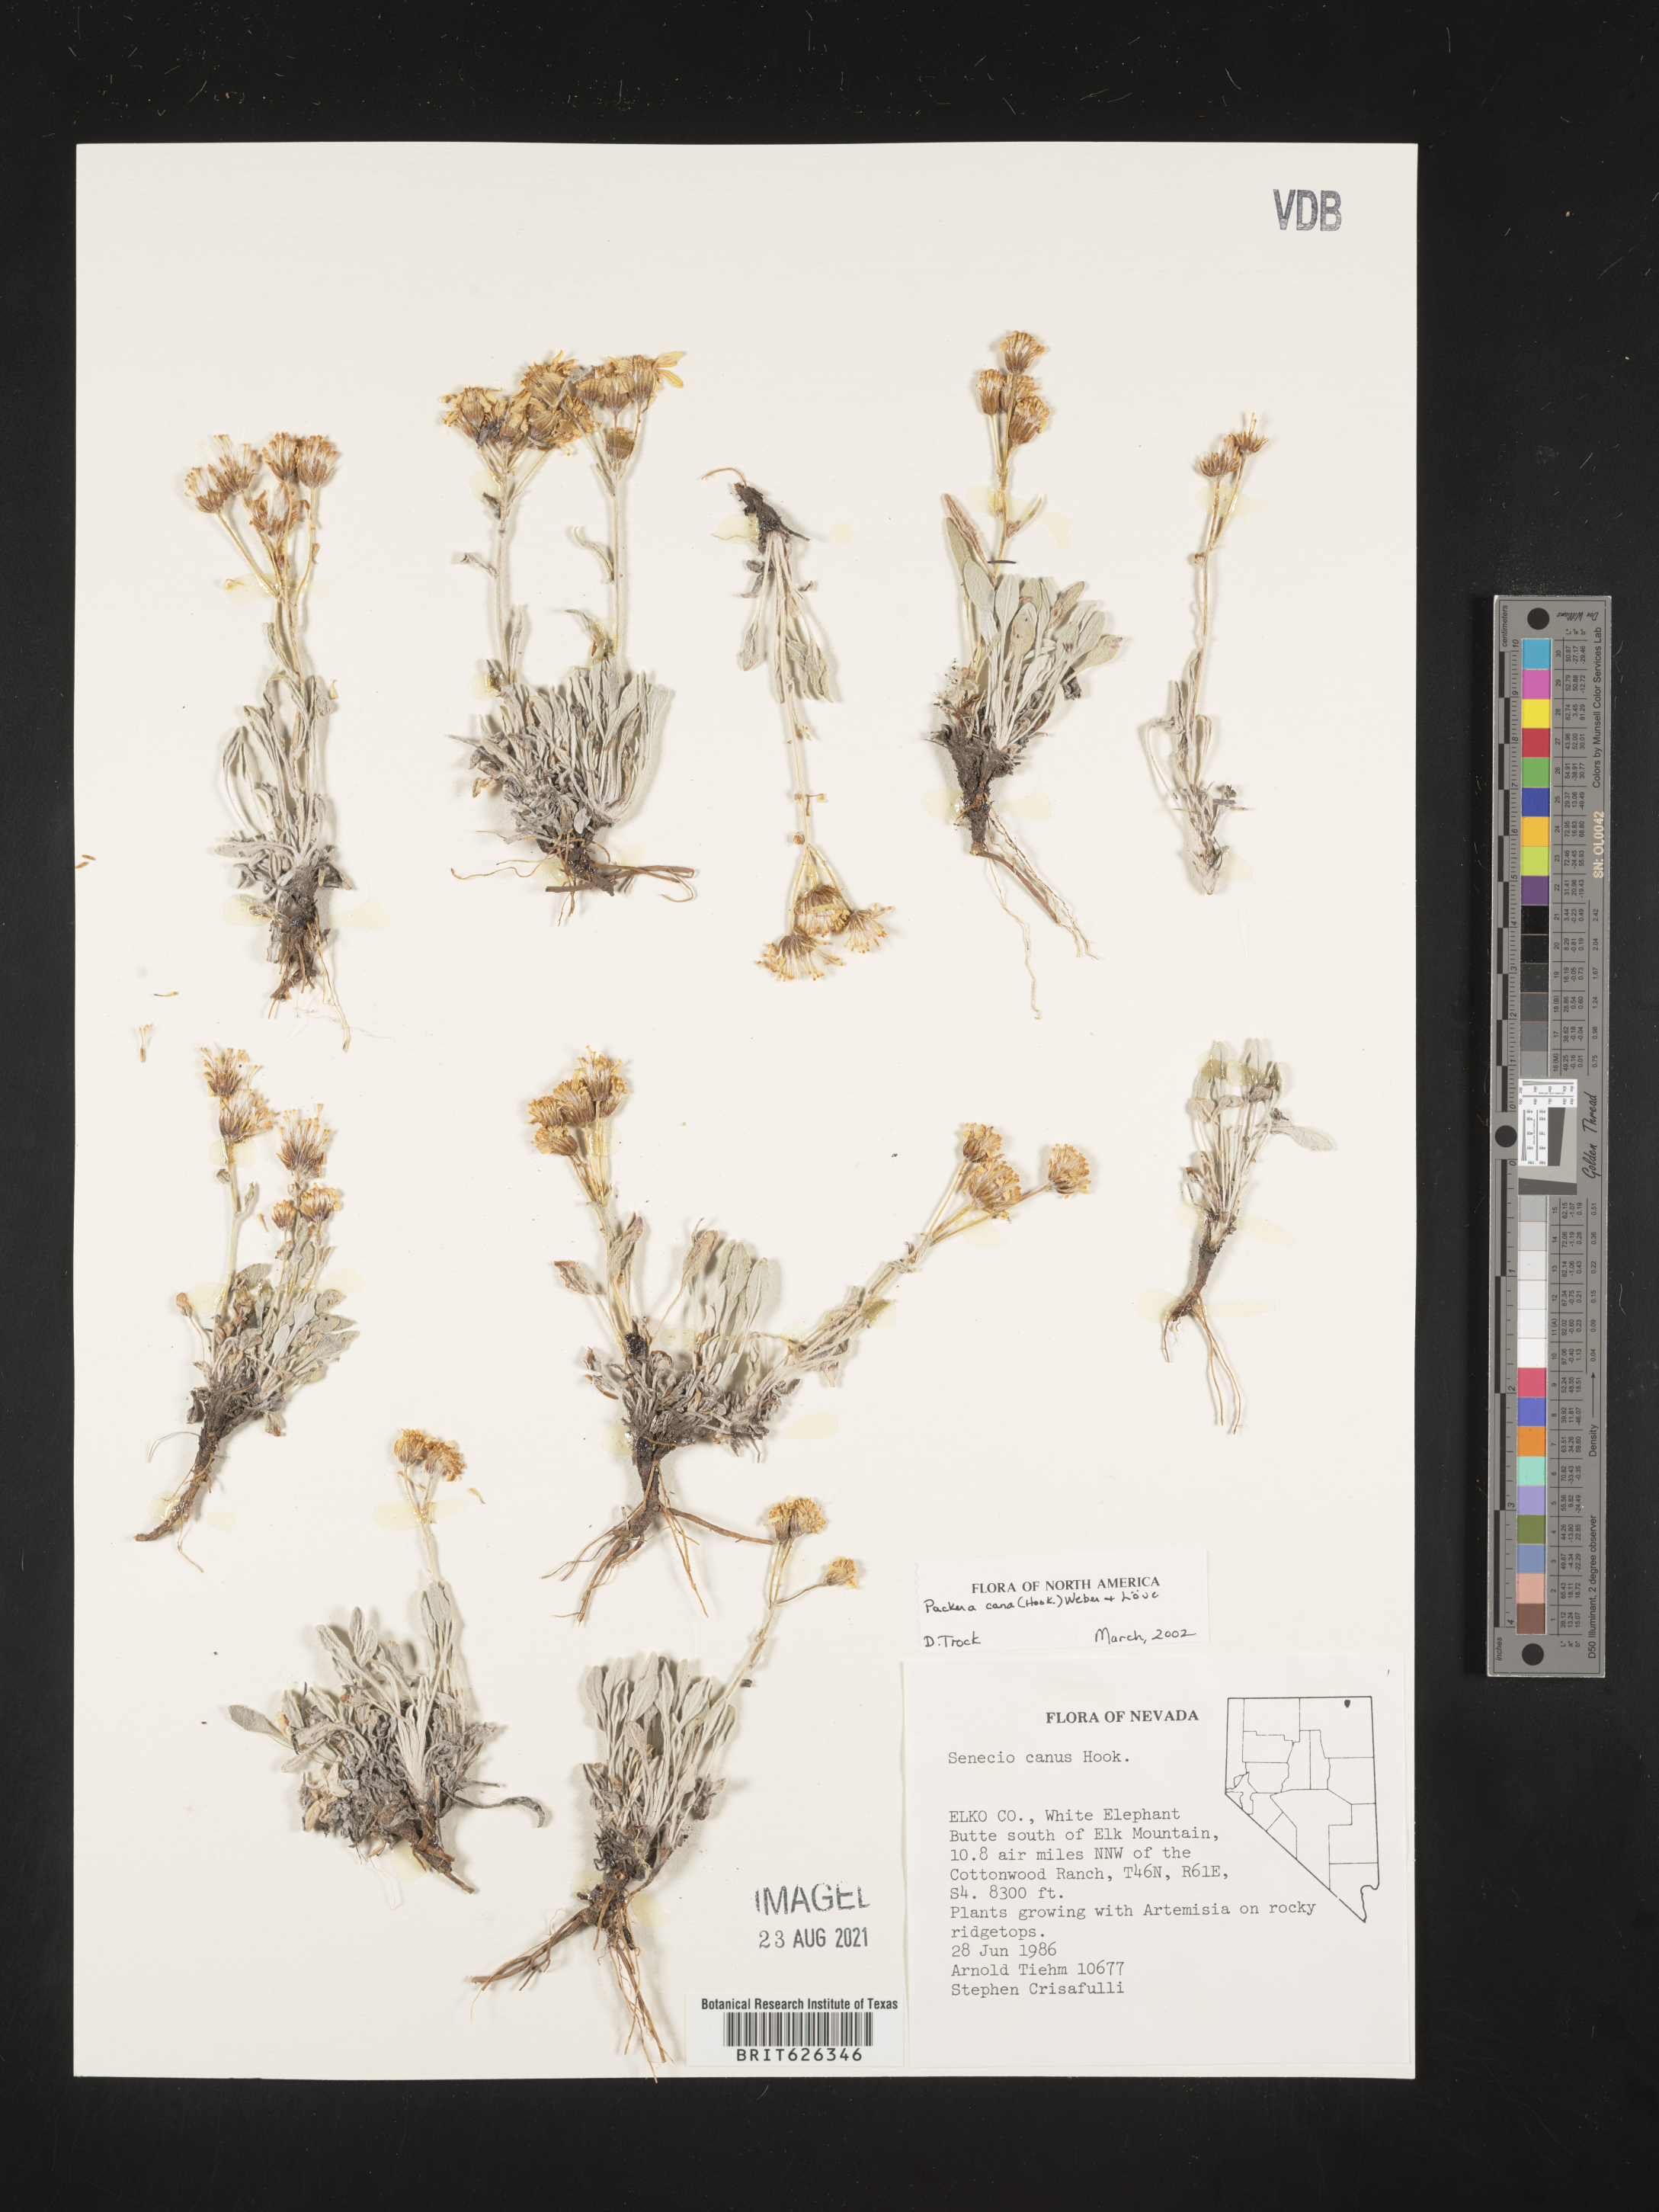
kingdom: Plantae
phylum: Tracheophyta
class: Magnoliopsida
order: Asterales
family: Asteraceae
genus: Senecio
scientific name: Senecio
